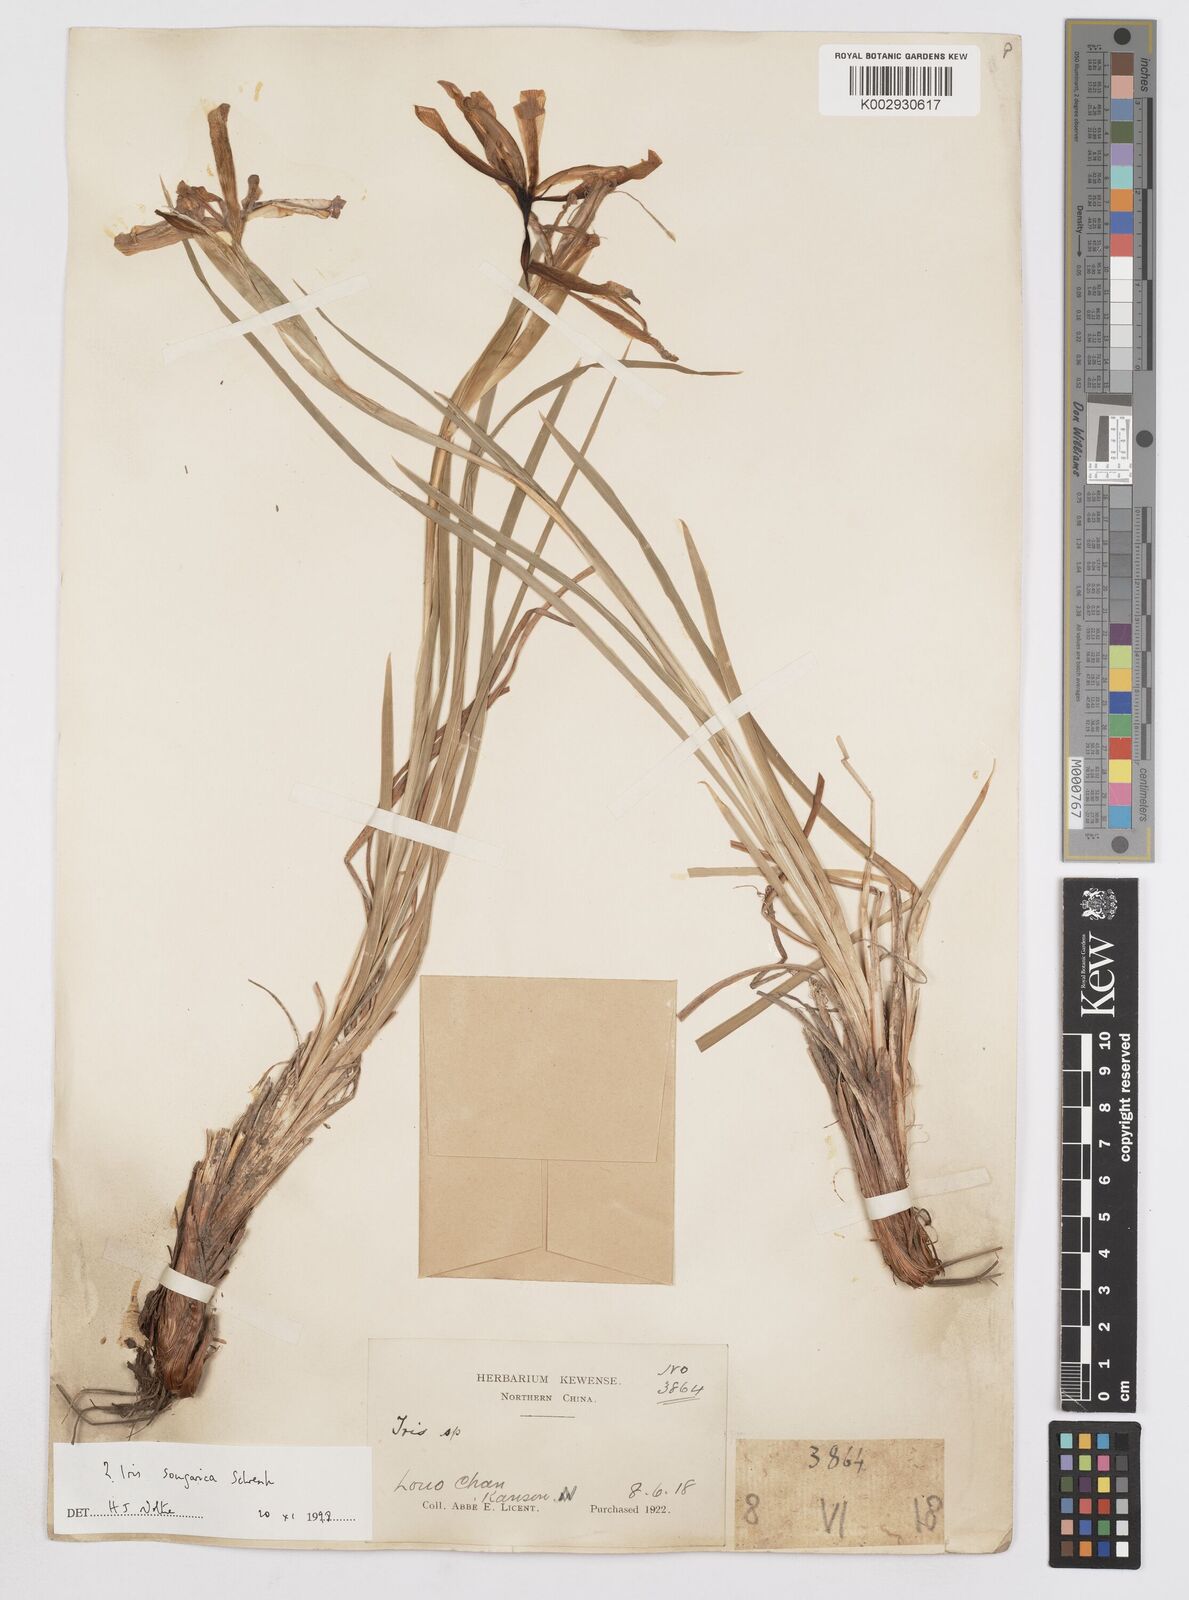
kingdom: Plantae
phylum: Tracheophyta
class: Liliopsida
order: Asparagales
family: Iridaceae
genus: Iris
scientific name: Iris songarica
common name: Songar iris
